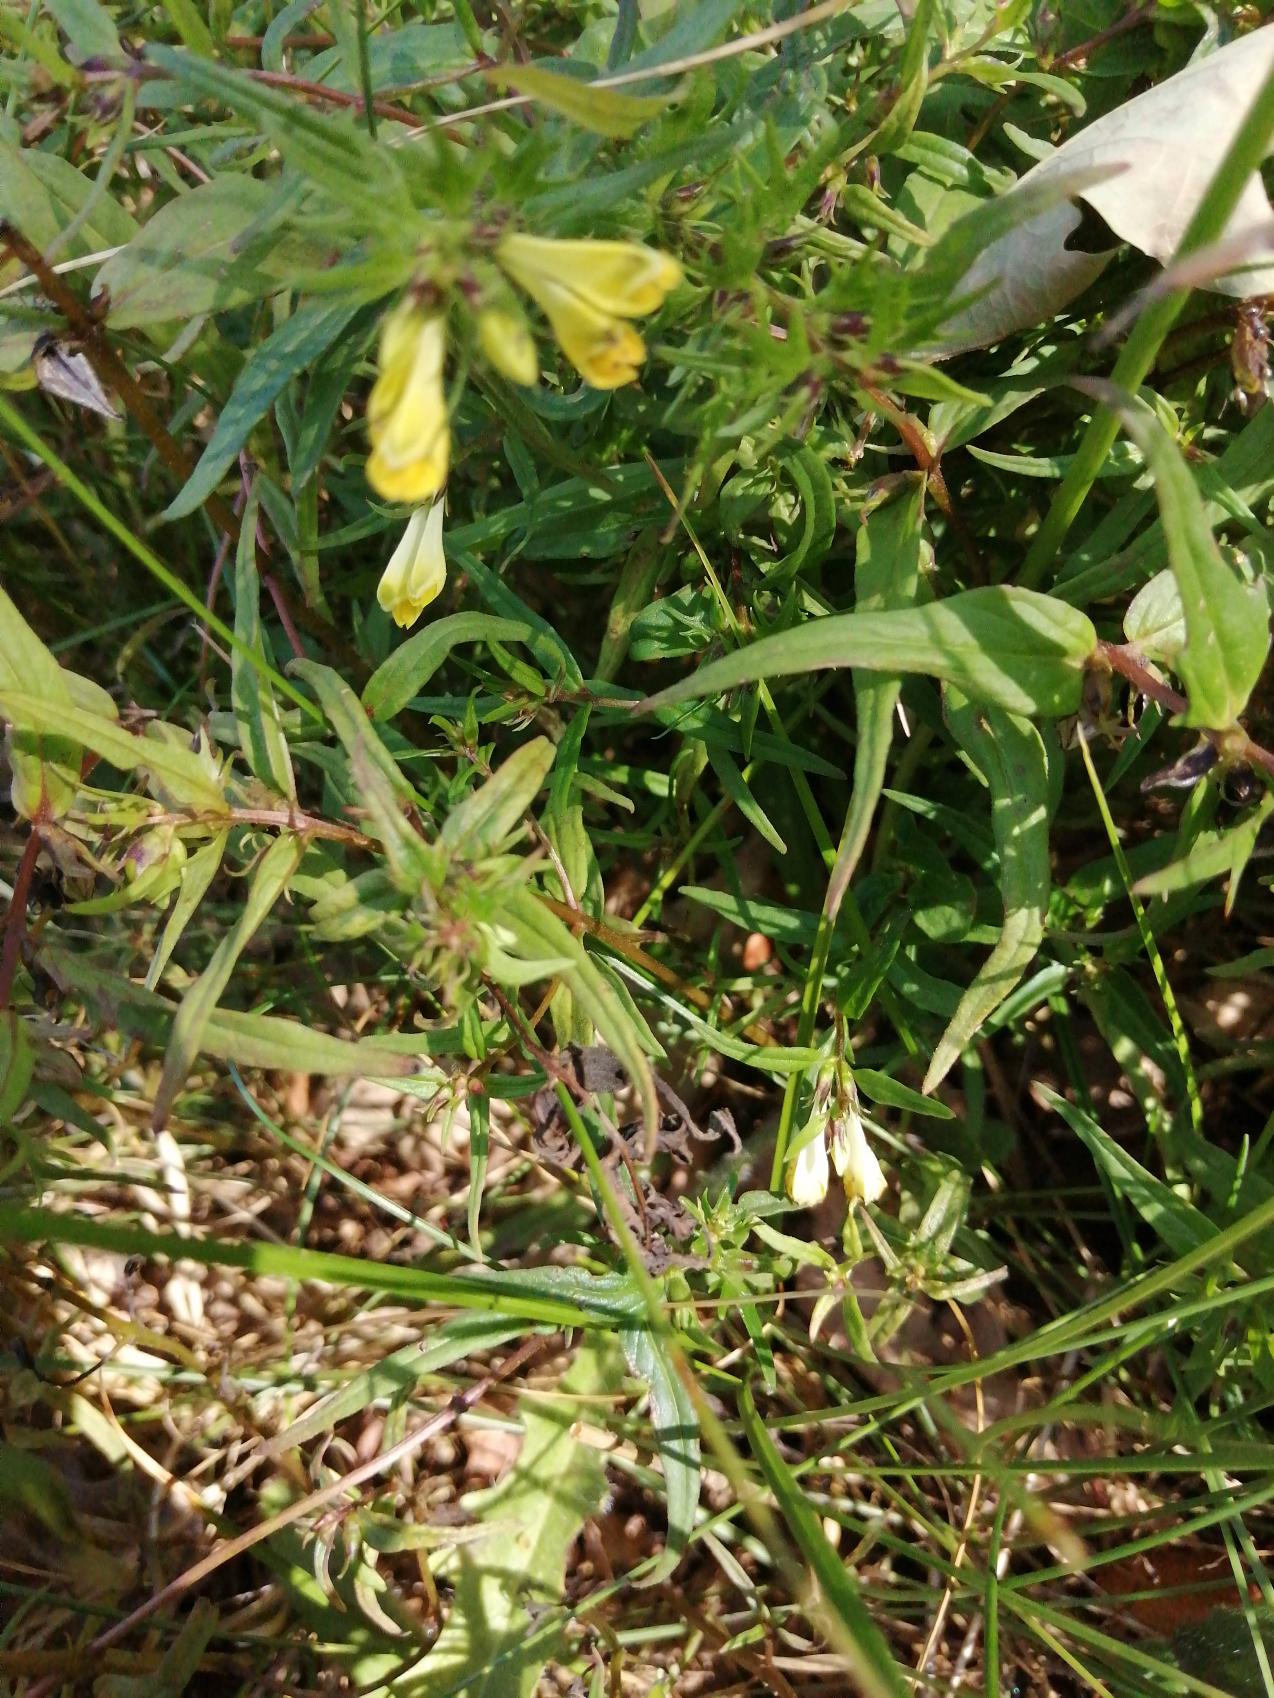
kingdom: Plantae
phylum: Tracheophyta
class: Magnoliopsida
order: Lamiales
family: Orobanchaceae
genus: Melampyrum
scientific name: Melampyrum pratense
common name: Almindelig kohvede
